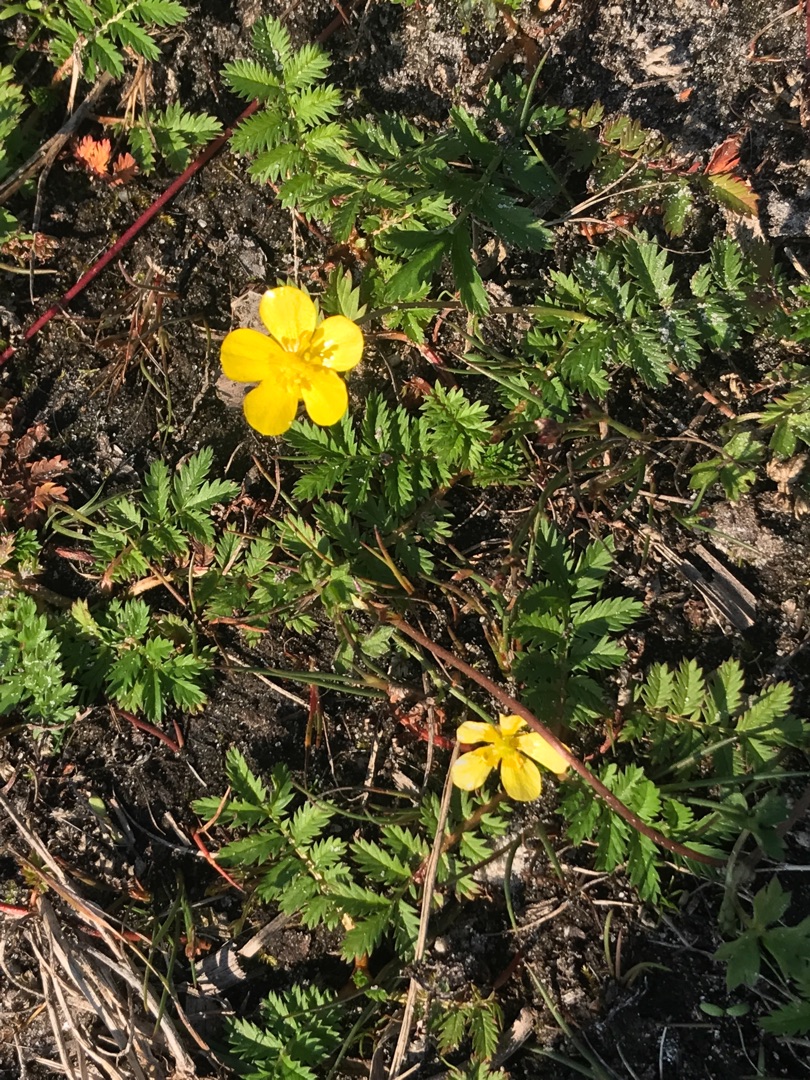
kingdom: Plantae
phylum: Tracheophyta
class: Magnoliopsida
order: Rosales
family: Rosaceae
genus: Argentina
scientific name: Argentina anserina
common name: Gåsepotentil
